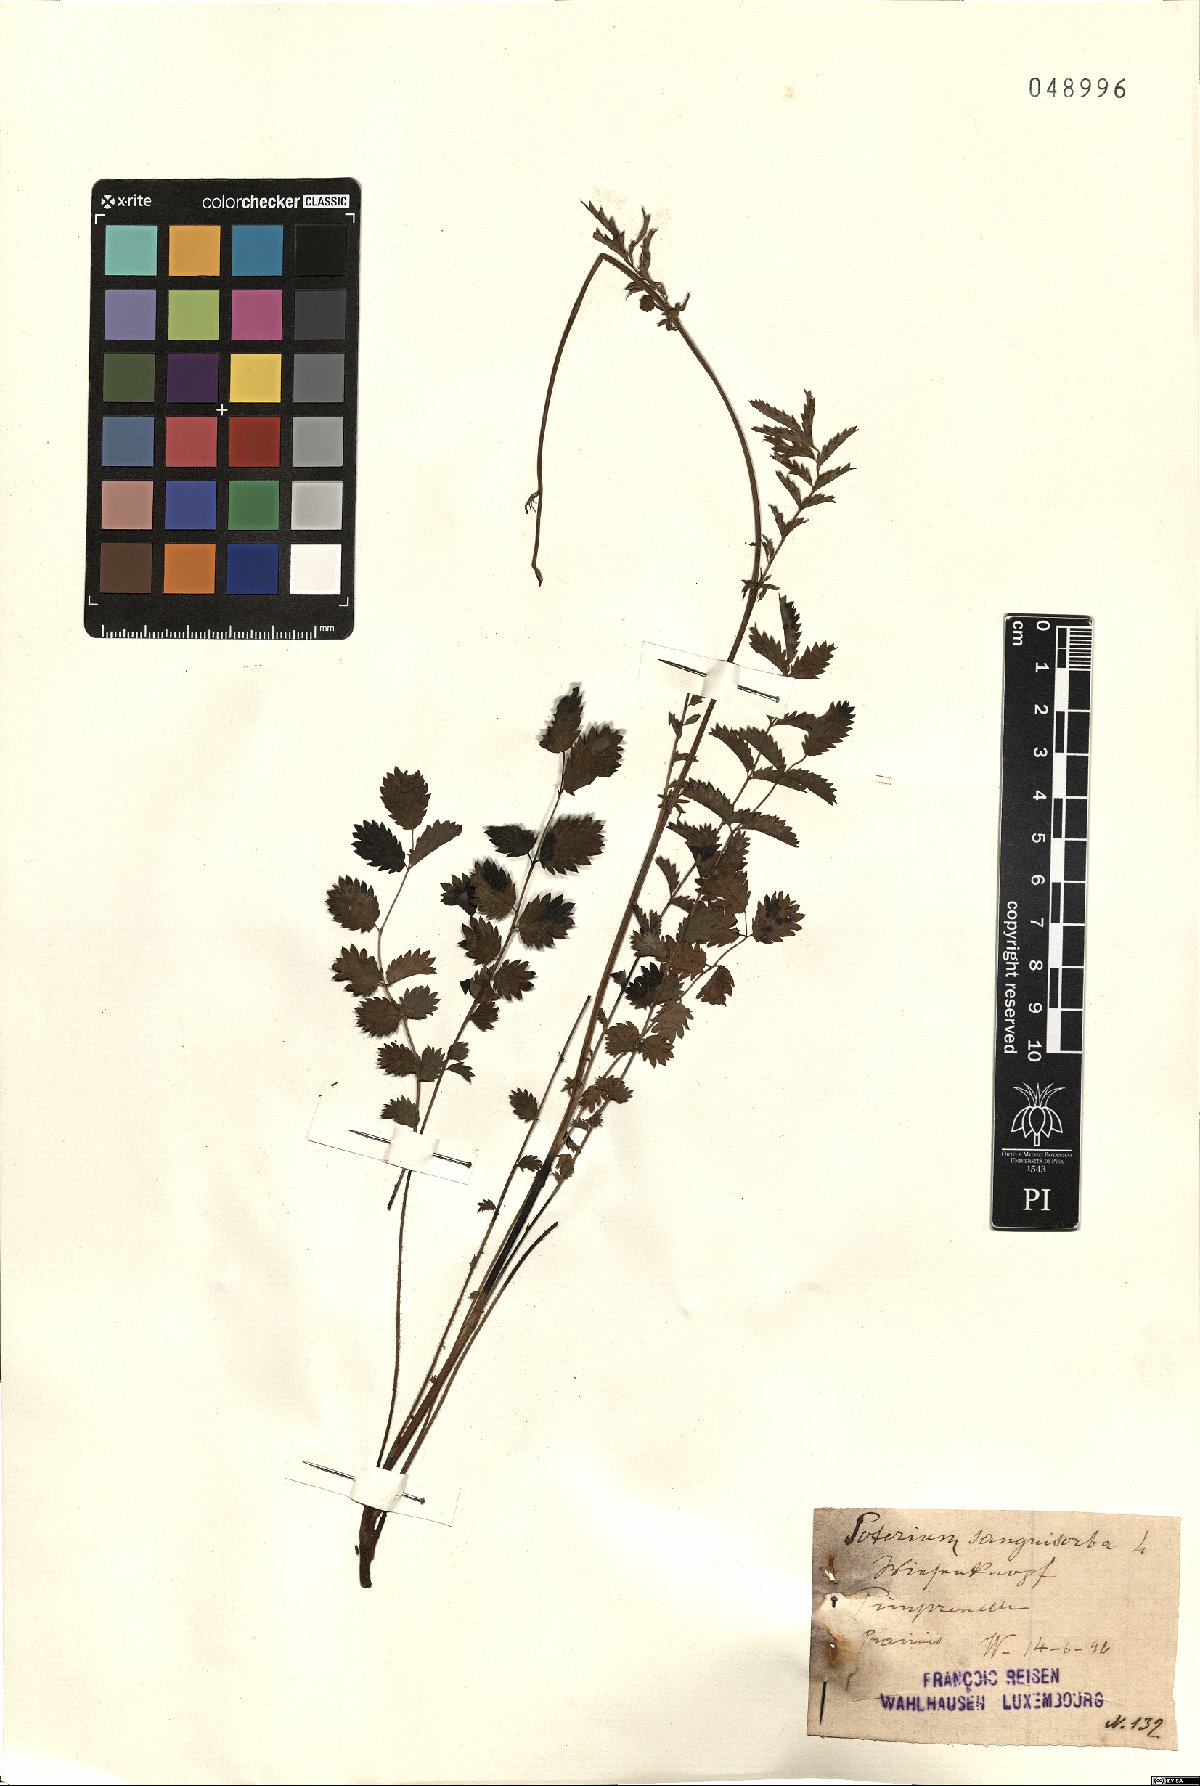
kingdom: Plantae
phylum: Tracheophyta
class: Magnoliopsida
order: Rosales
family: Rosaceae
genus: Poterium
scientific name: Poterium sanguisorba
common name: Salad burnet
